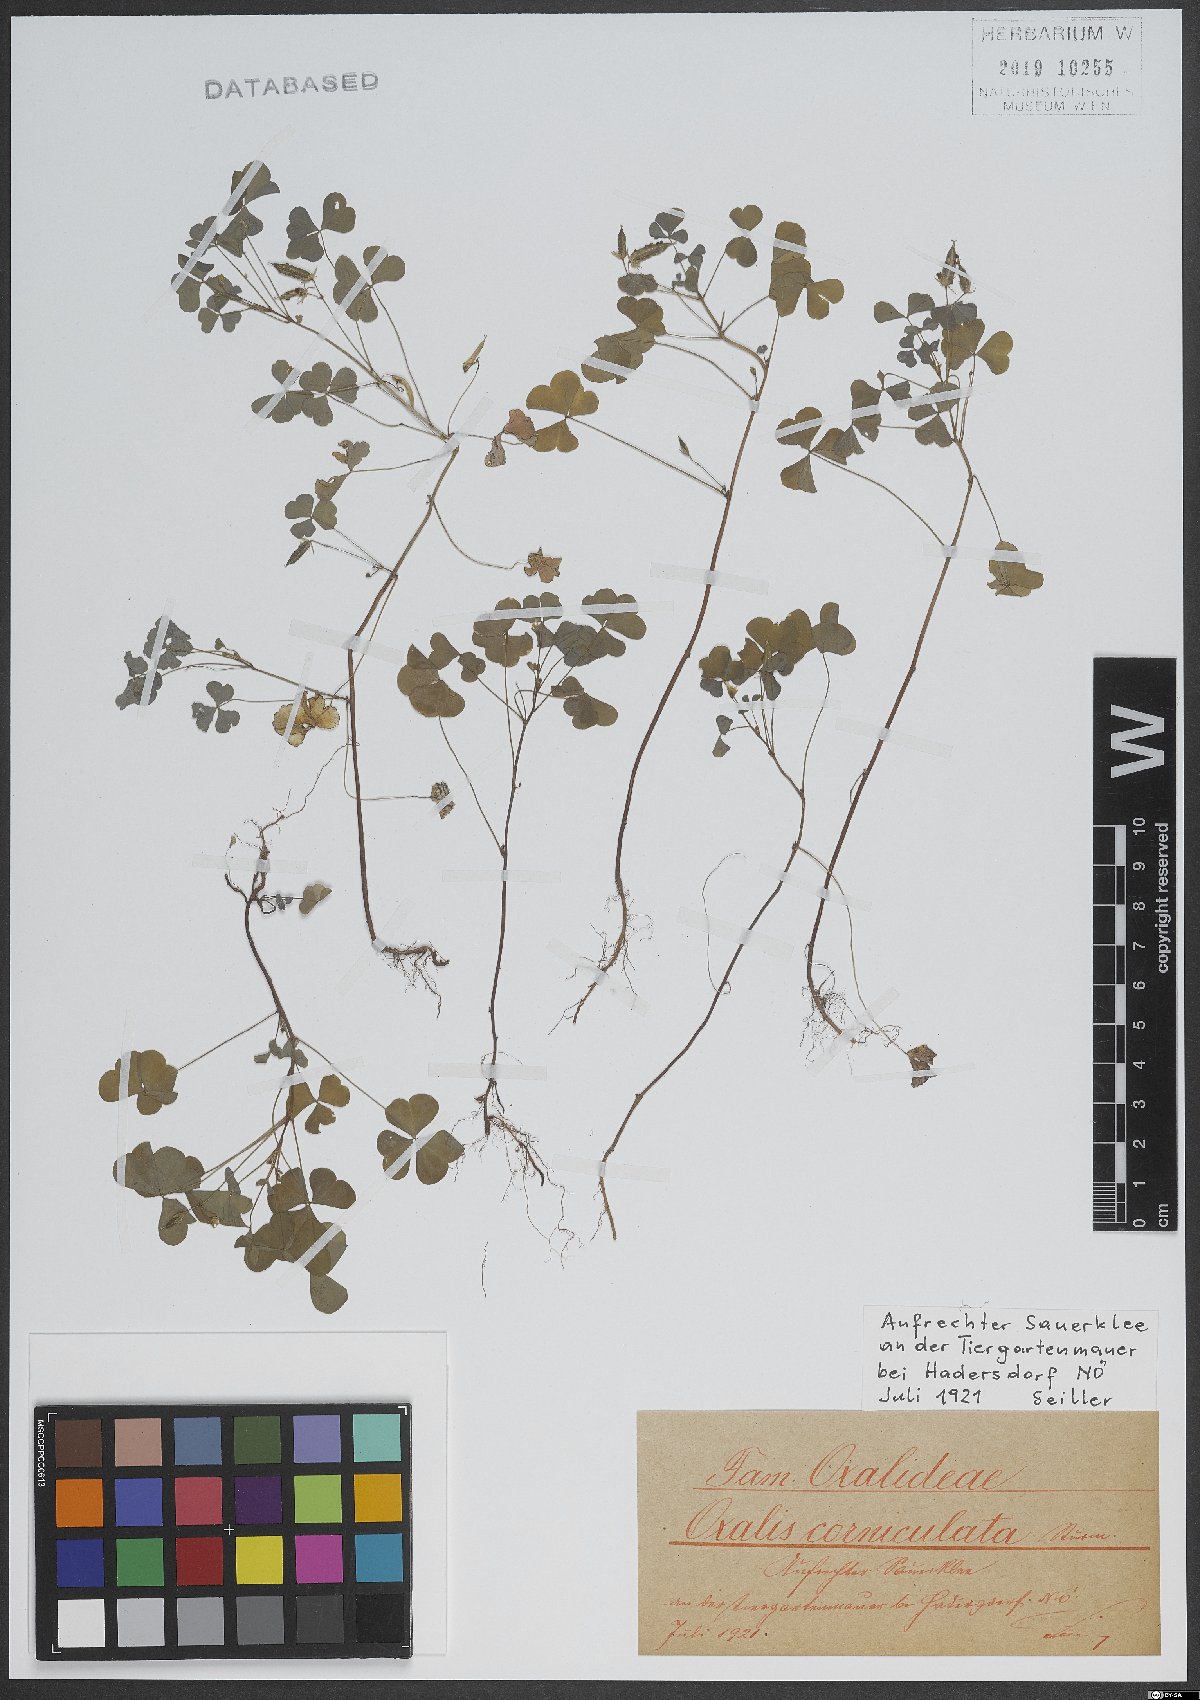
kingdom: Plantae
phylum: Tracheophyta
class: Magnoliopsida
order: Oxalidales
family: Oxalidaceae
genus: Oxalis
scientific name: Oxalis corniculata
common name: Procumbent yellow-sorrel
